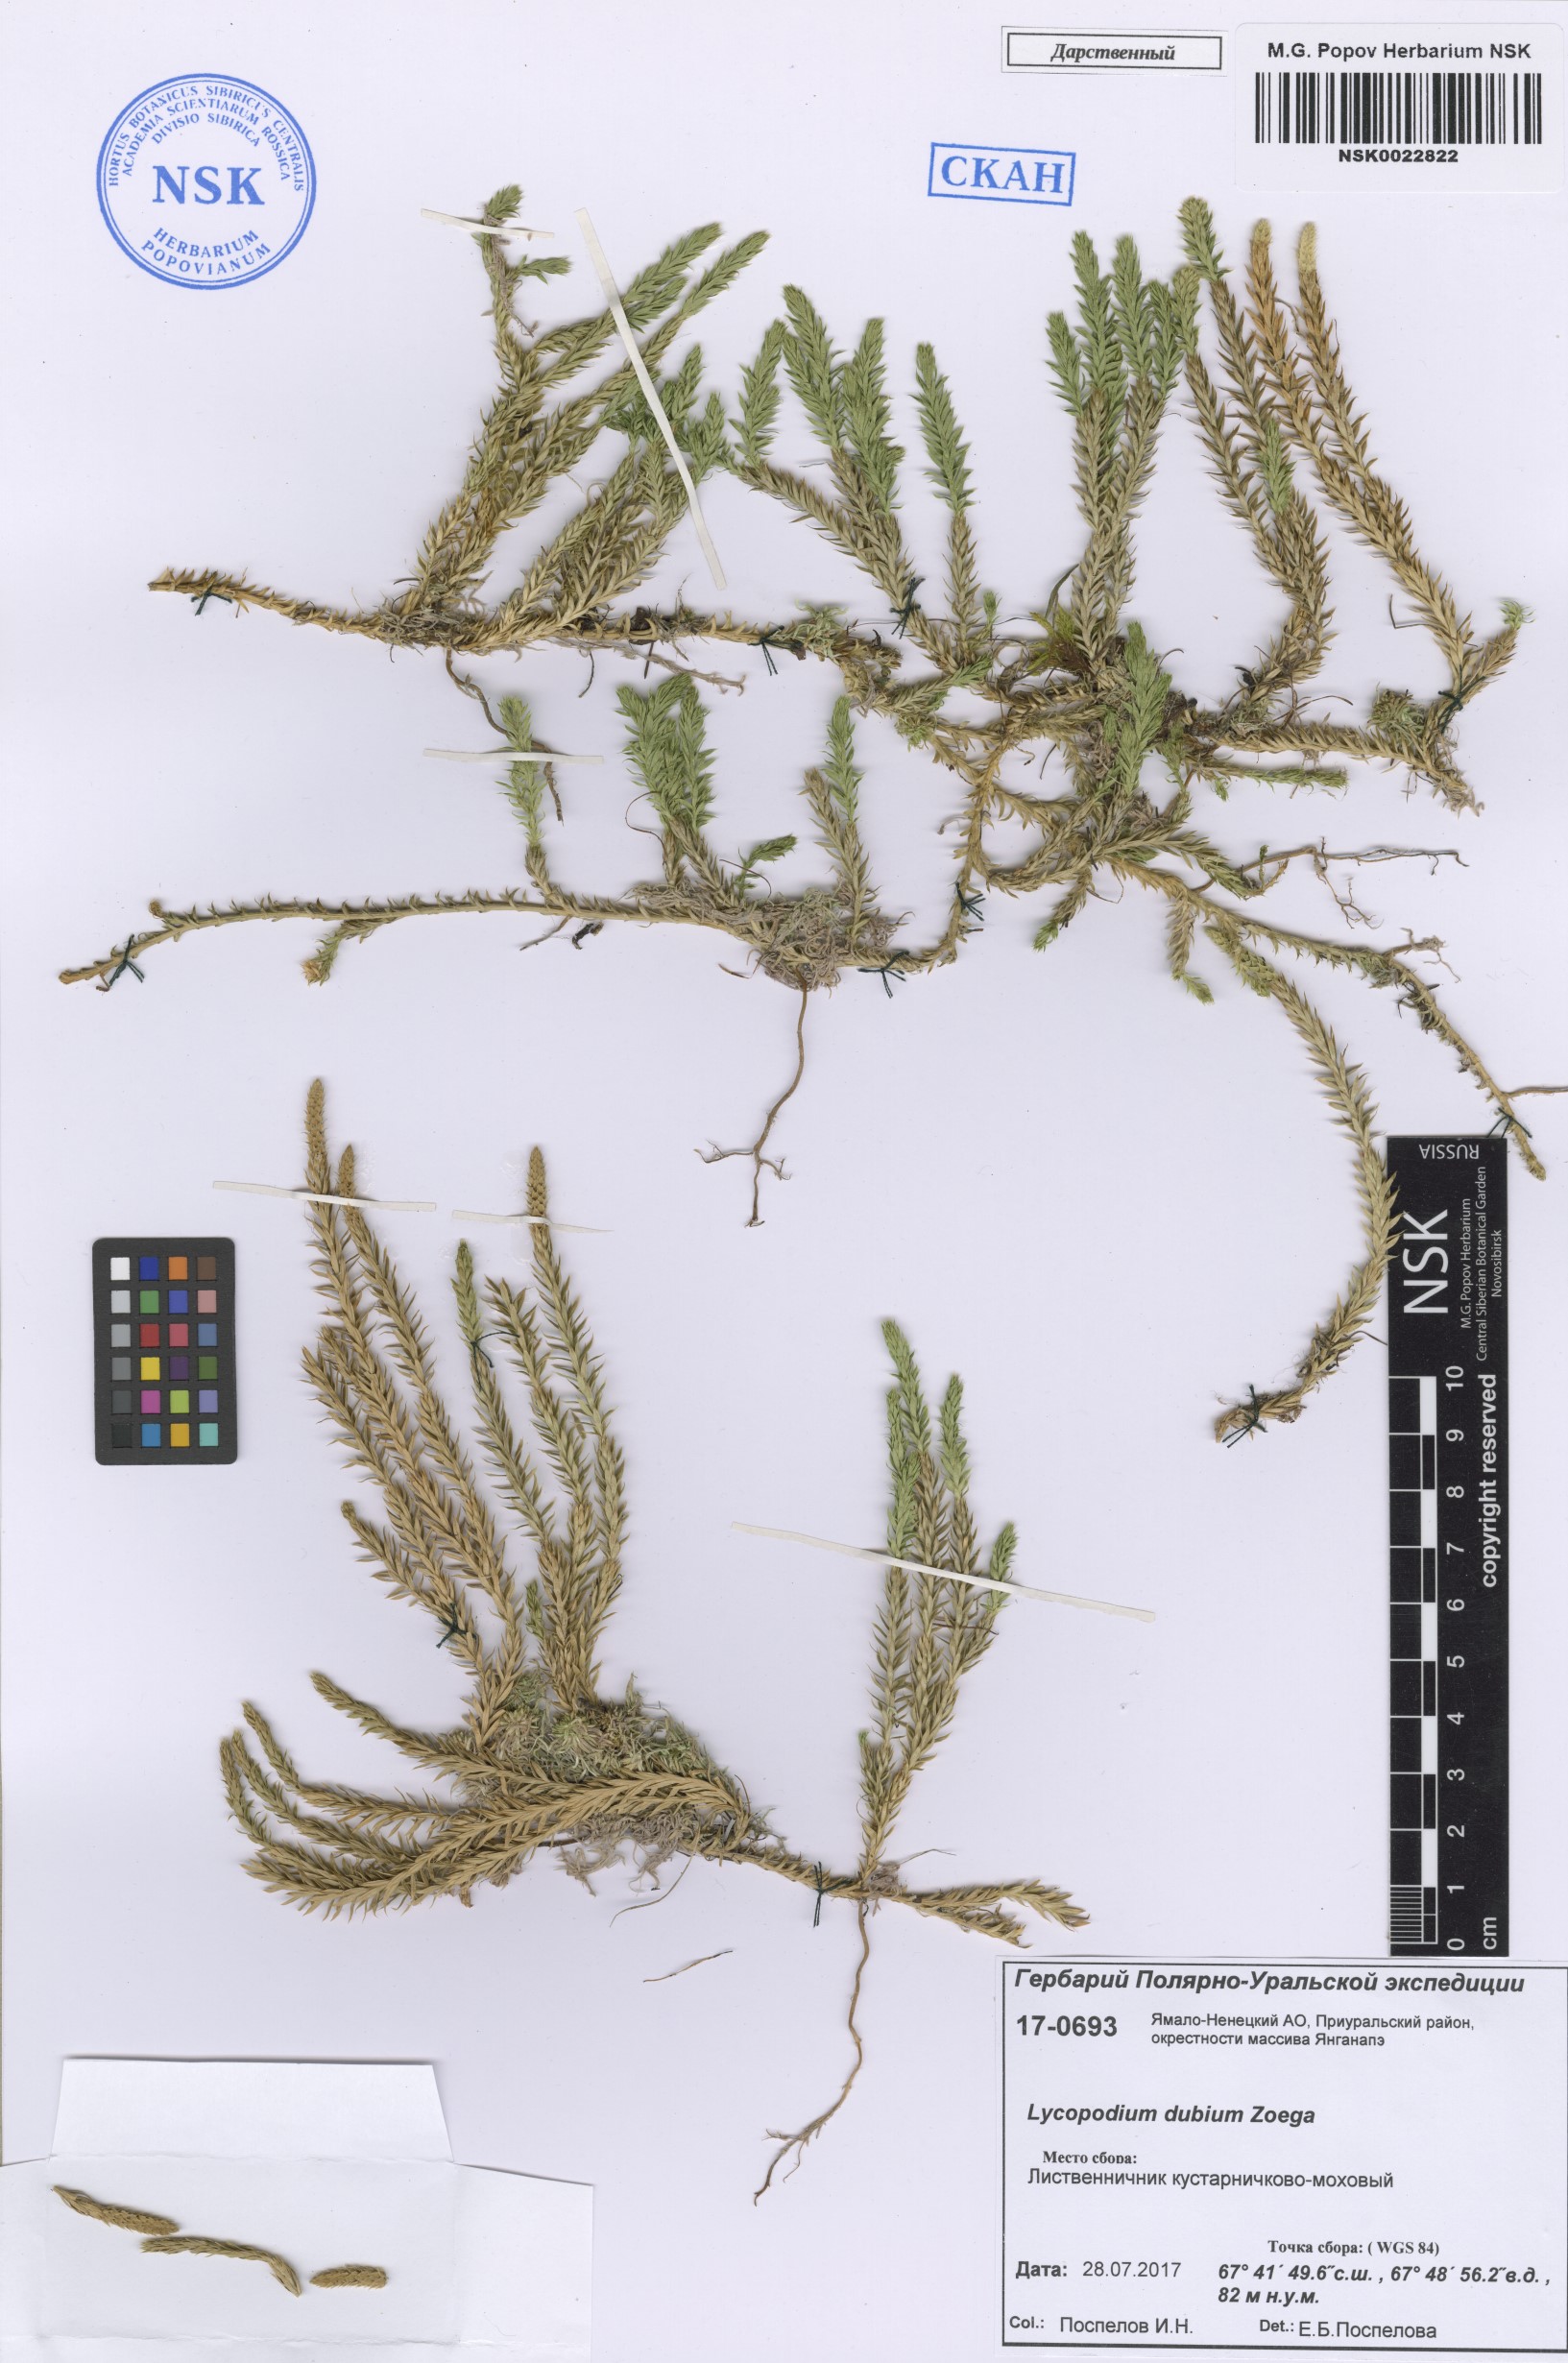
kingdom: Plantae
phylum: Tracheophyta
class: Lycopodiopsida
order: Lycopodiales
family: Lycopodiaceae
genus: Spinulum
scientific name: Spinulum annotinum
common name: Interrupted club-moss
